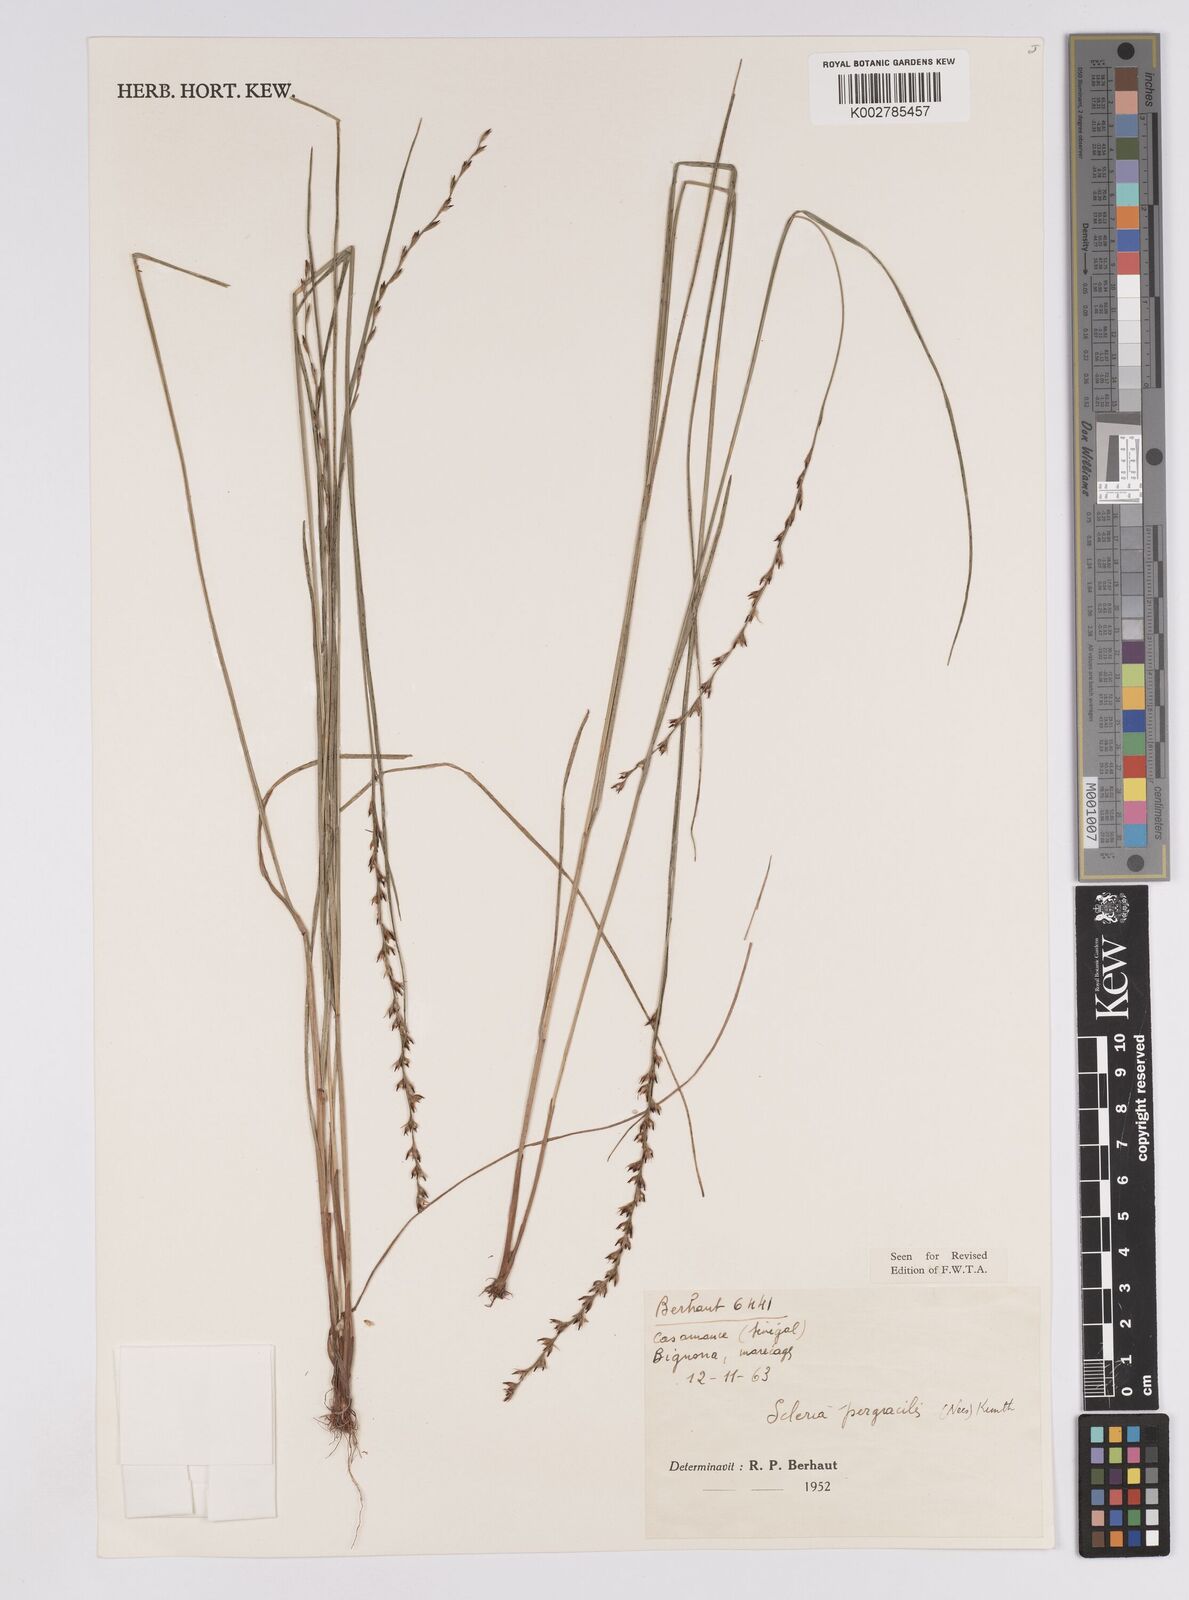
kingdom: Plantae
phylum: Tracheophyta
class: Liliopsida
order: Poales
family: Cyperaceae
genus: Scleria
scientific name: Scleria pergracilis
